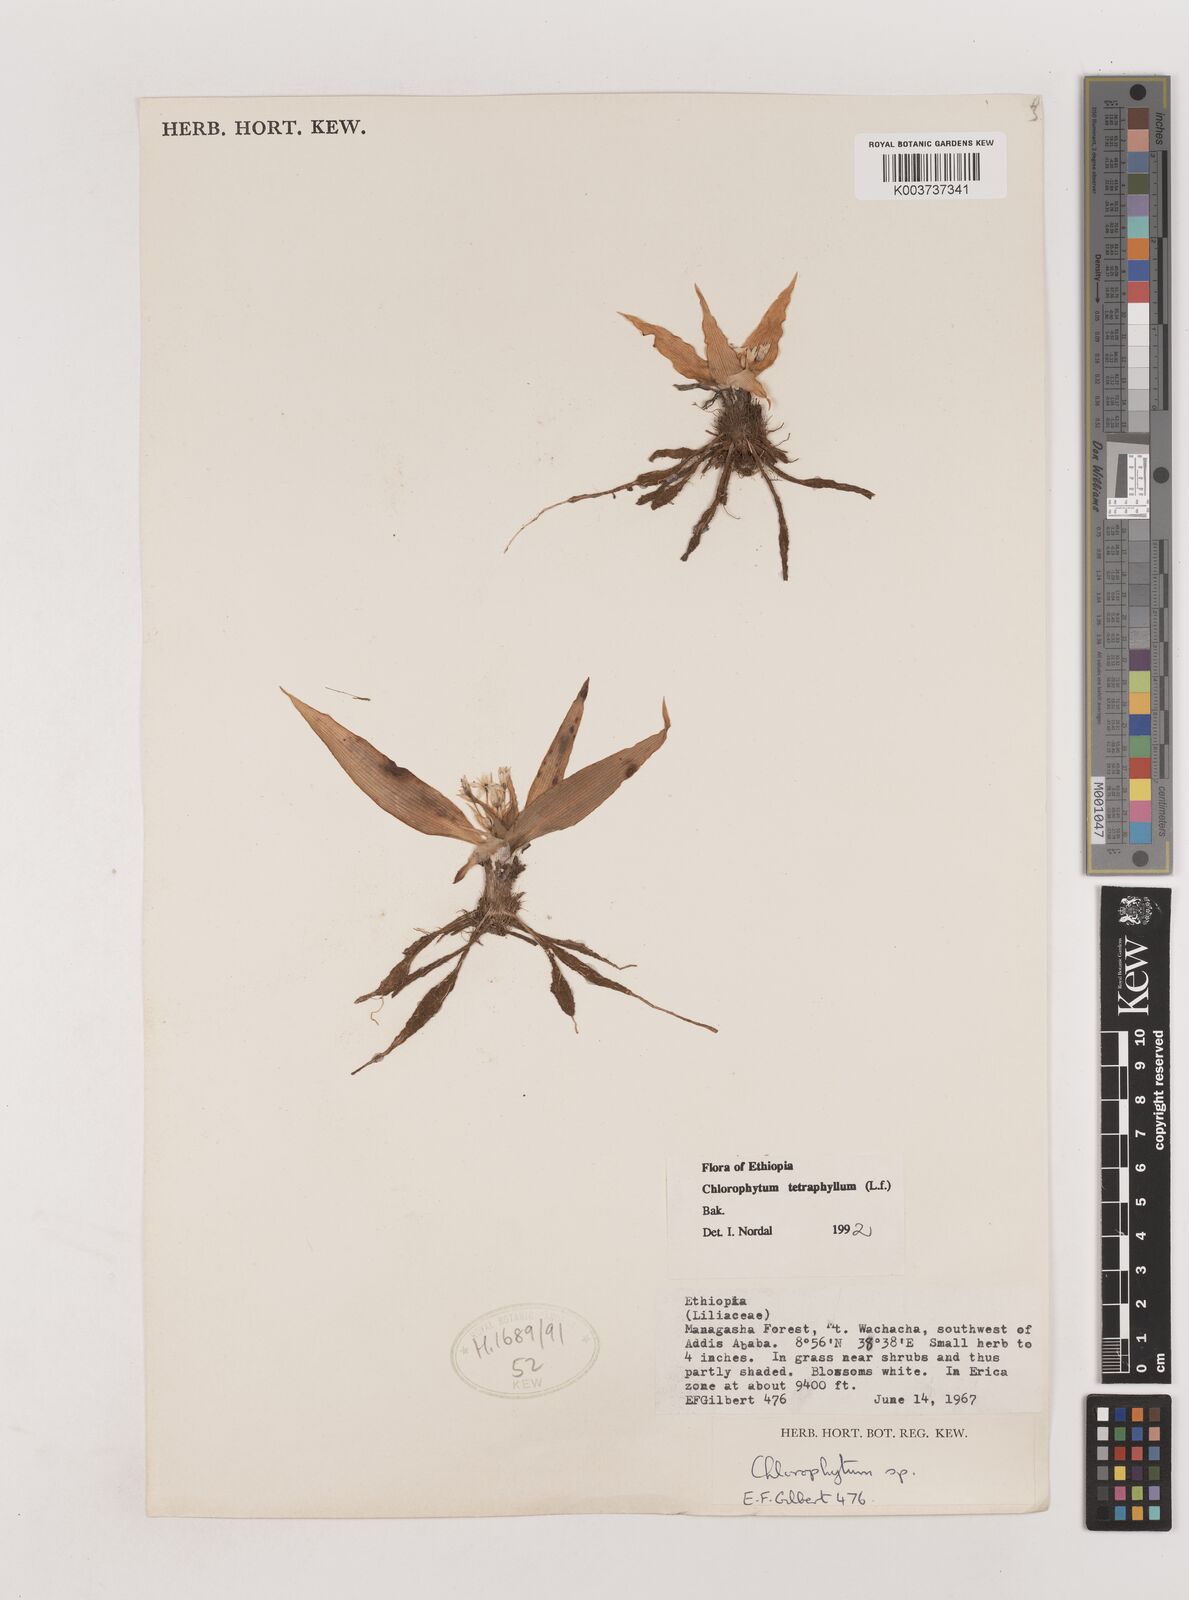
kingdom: Plantae
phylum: Tracheophyta
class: Liliopsida
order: Asparagales
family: Asparagaceae
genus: Chlorophytum
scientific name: Chlorophytum tetraphyllum
